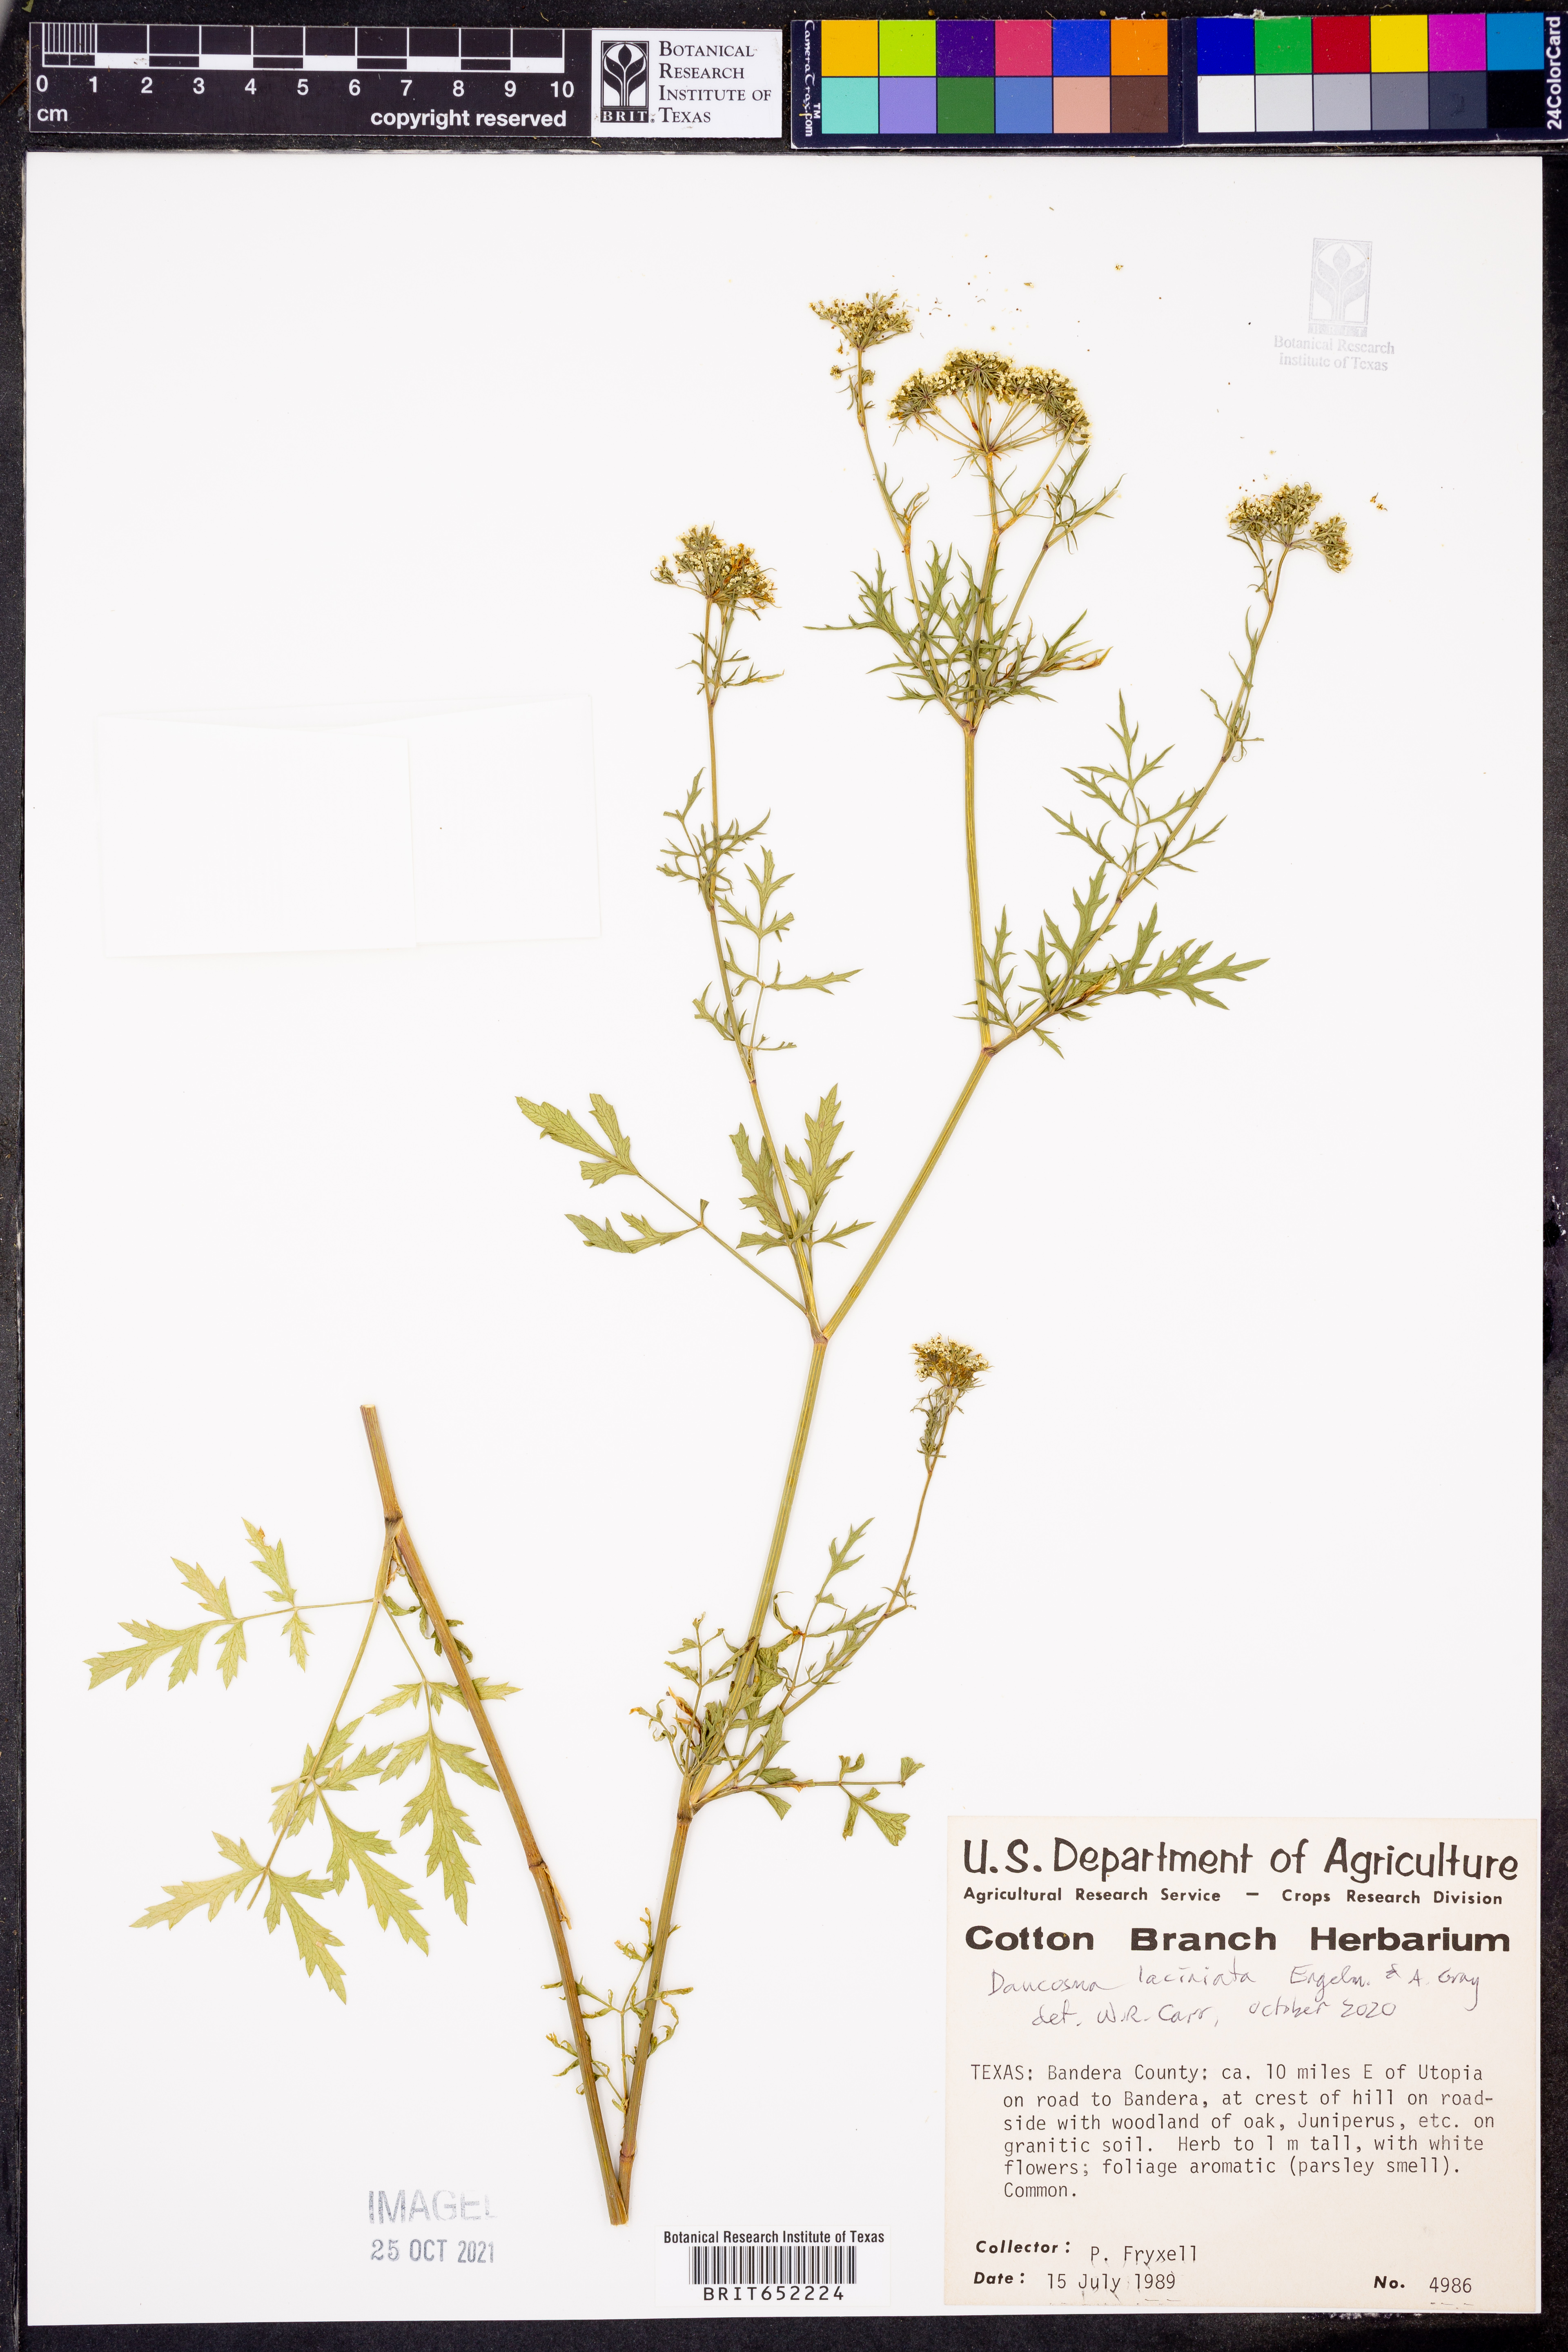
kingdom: Plantae
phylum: Tracheophyta
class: Magnoliopsida
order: Apiales
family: Apiaceae
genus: Daucosma
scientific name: Daucosma laciniatum
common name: Meadow-parasol
